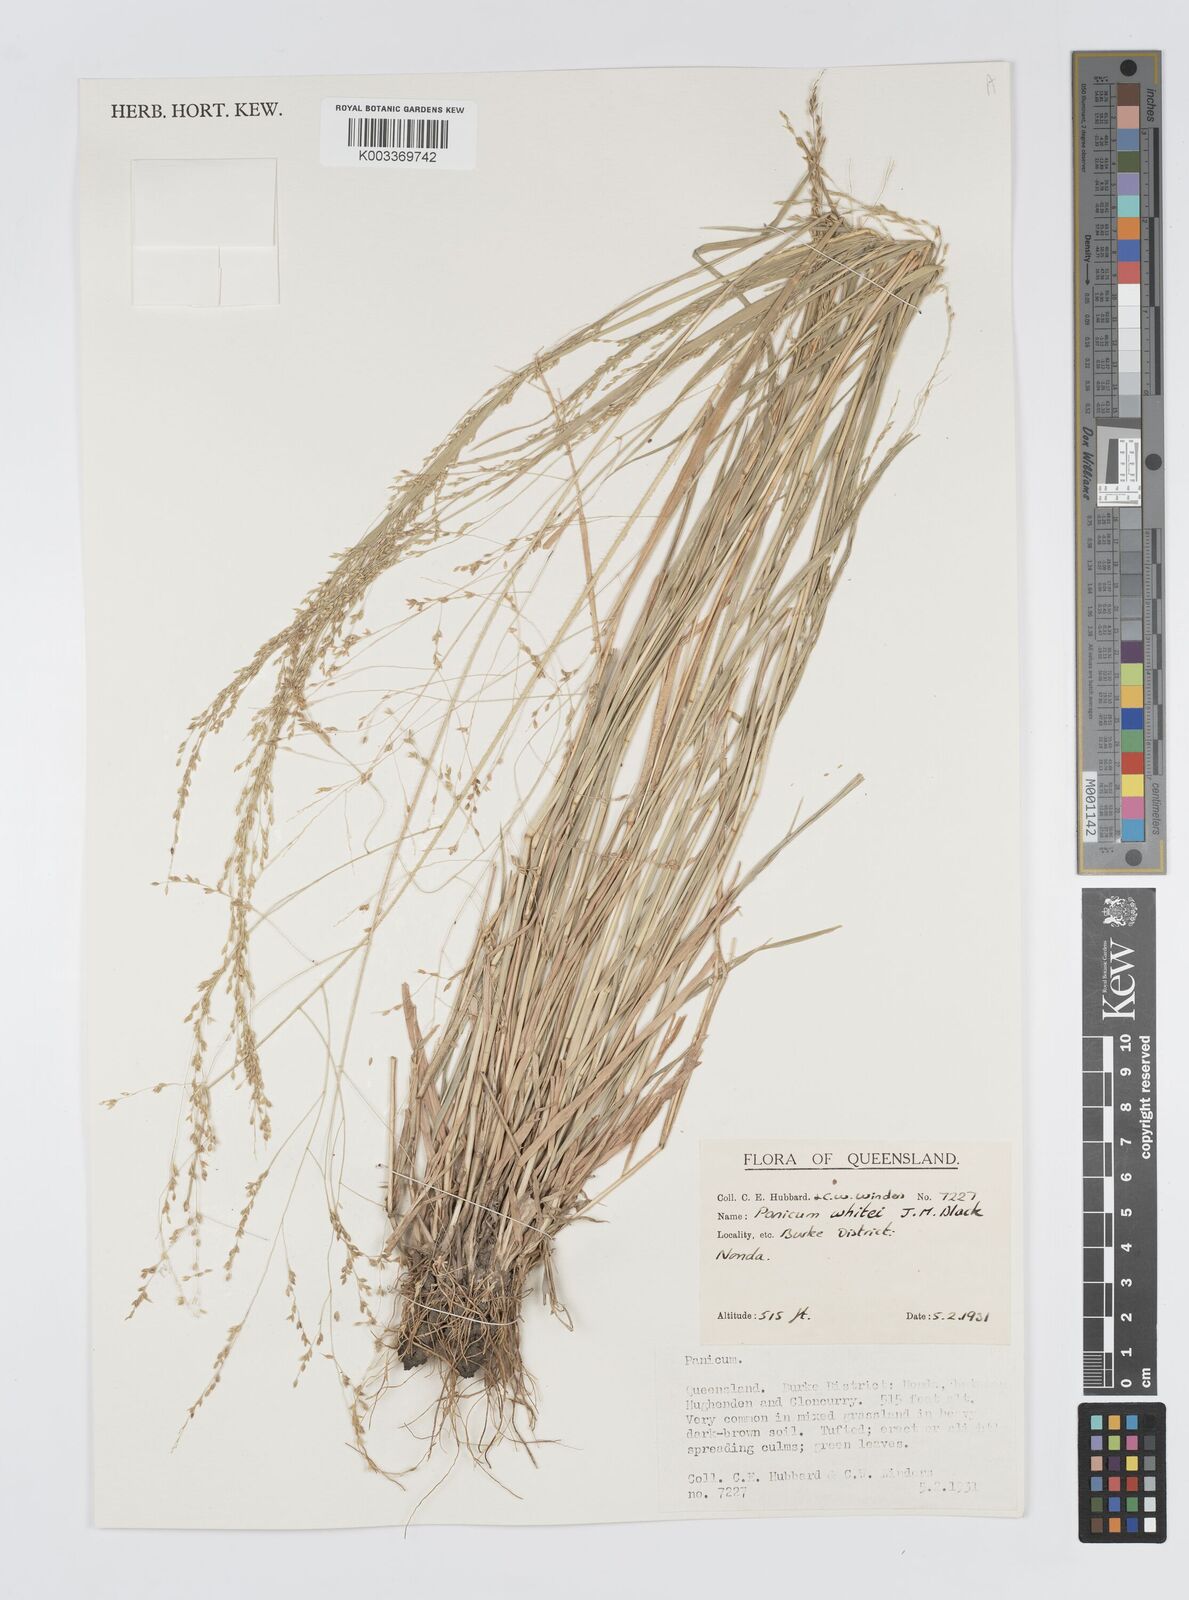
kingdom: Plantae
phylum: Tracheophyta
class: Liliopsida
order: Poales
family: Poaceae
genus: Panicum
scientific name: Panicum laevinode
